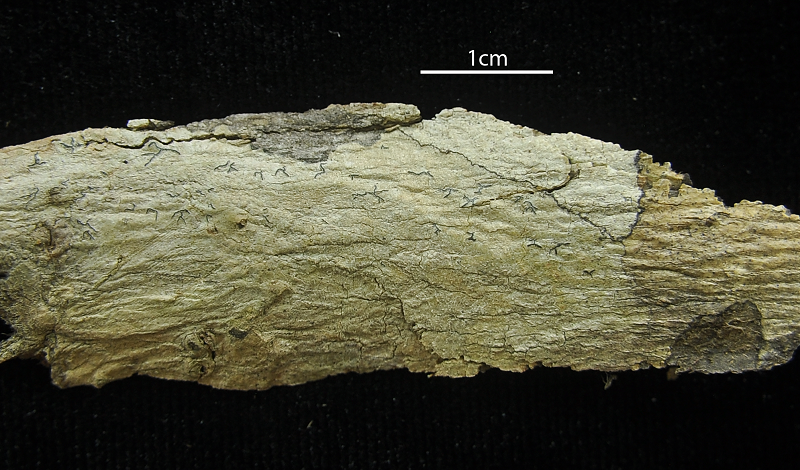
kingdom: Fungi
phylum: Ascomycota
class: Lecanoromycetes
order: Ostropales
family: Graphidaceae
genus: Graphis
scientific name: Graphis supracola
